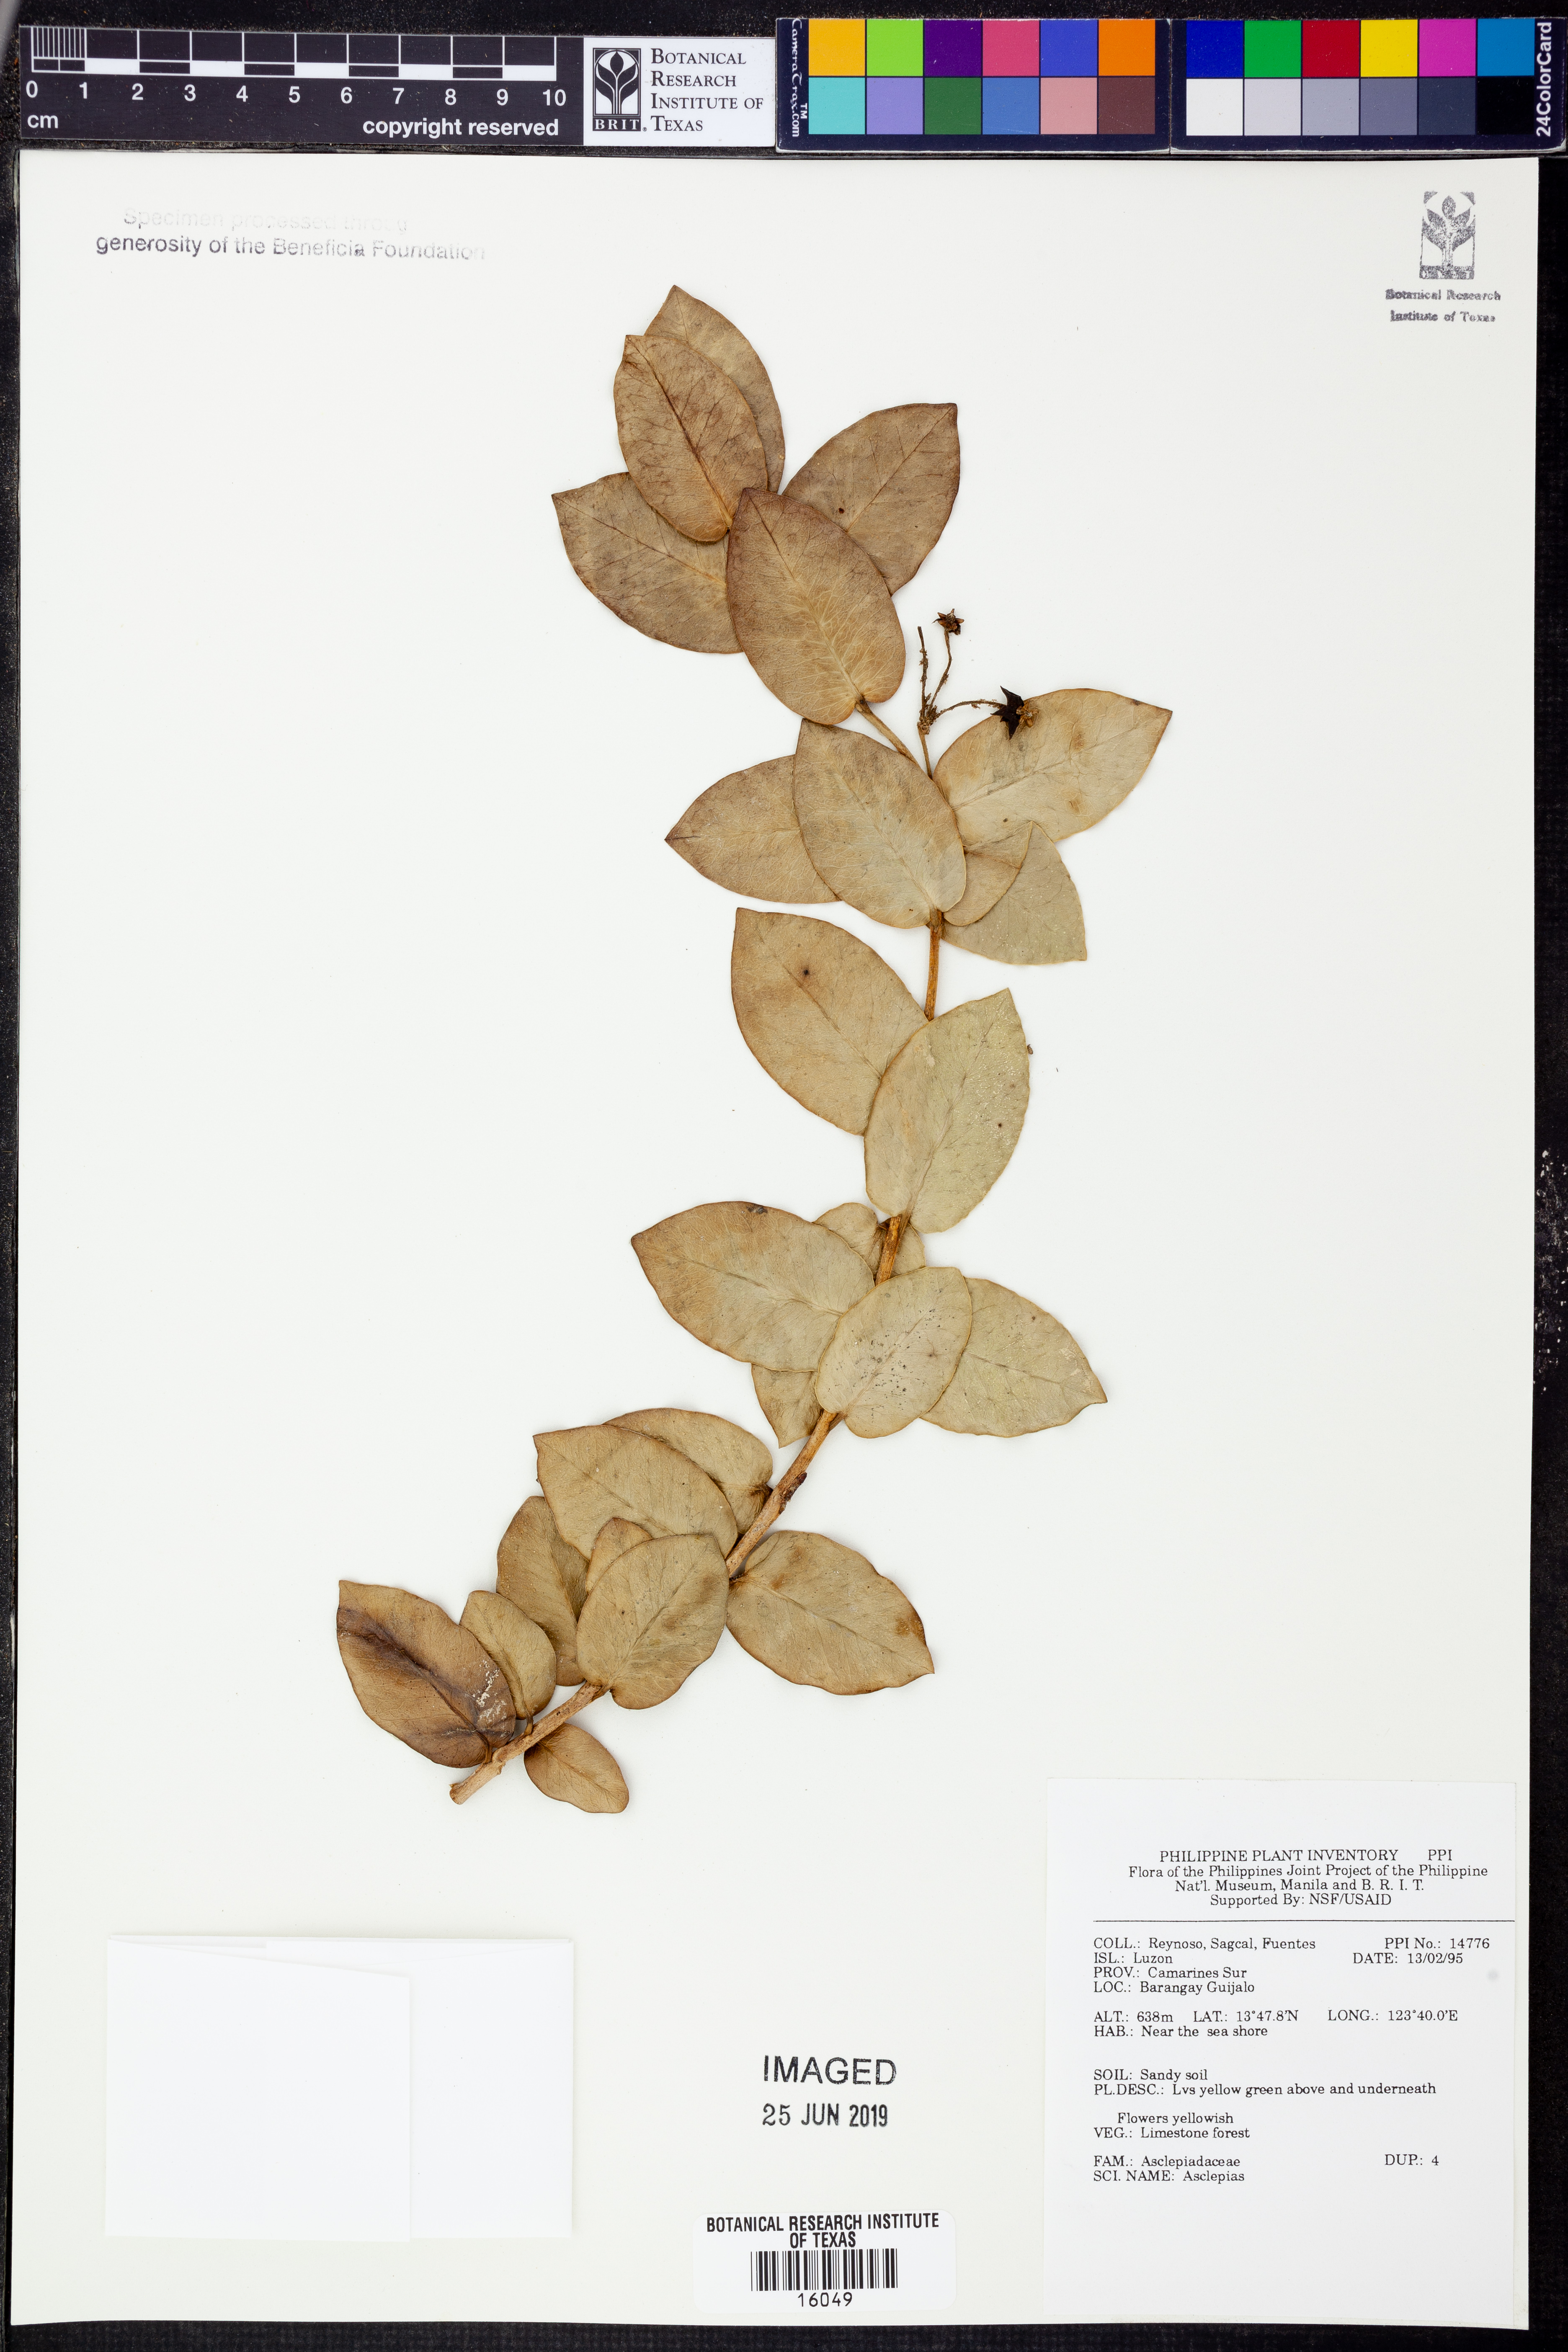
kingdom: Plantae
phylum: Tracheophyta
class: Magnoliopsida
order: Gentianales
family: Apocynaceae
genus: Asclepias
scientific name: Asclepias
